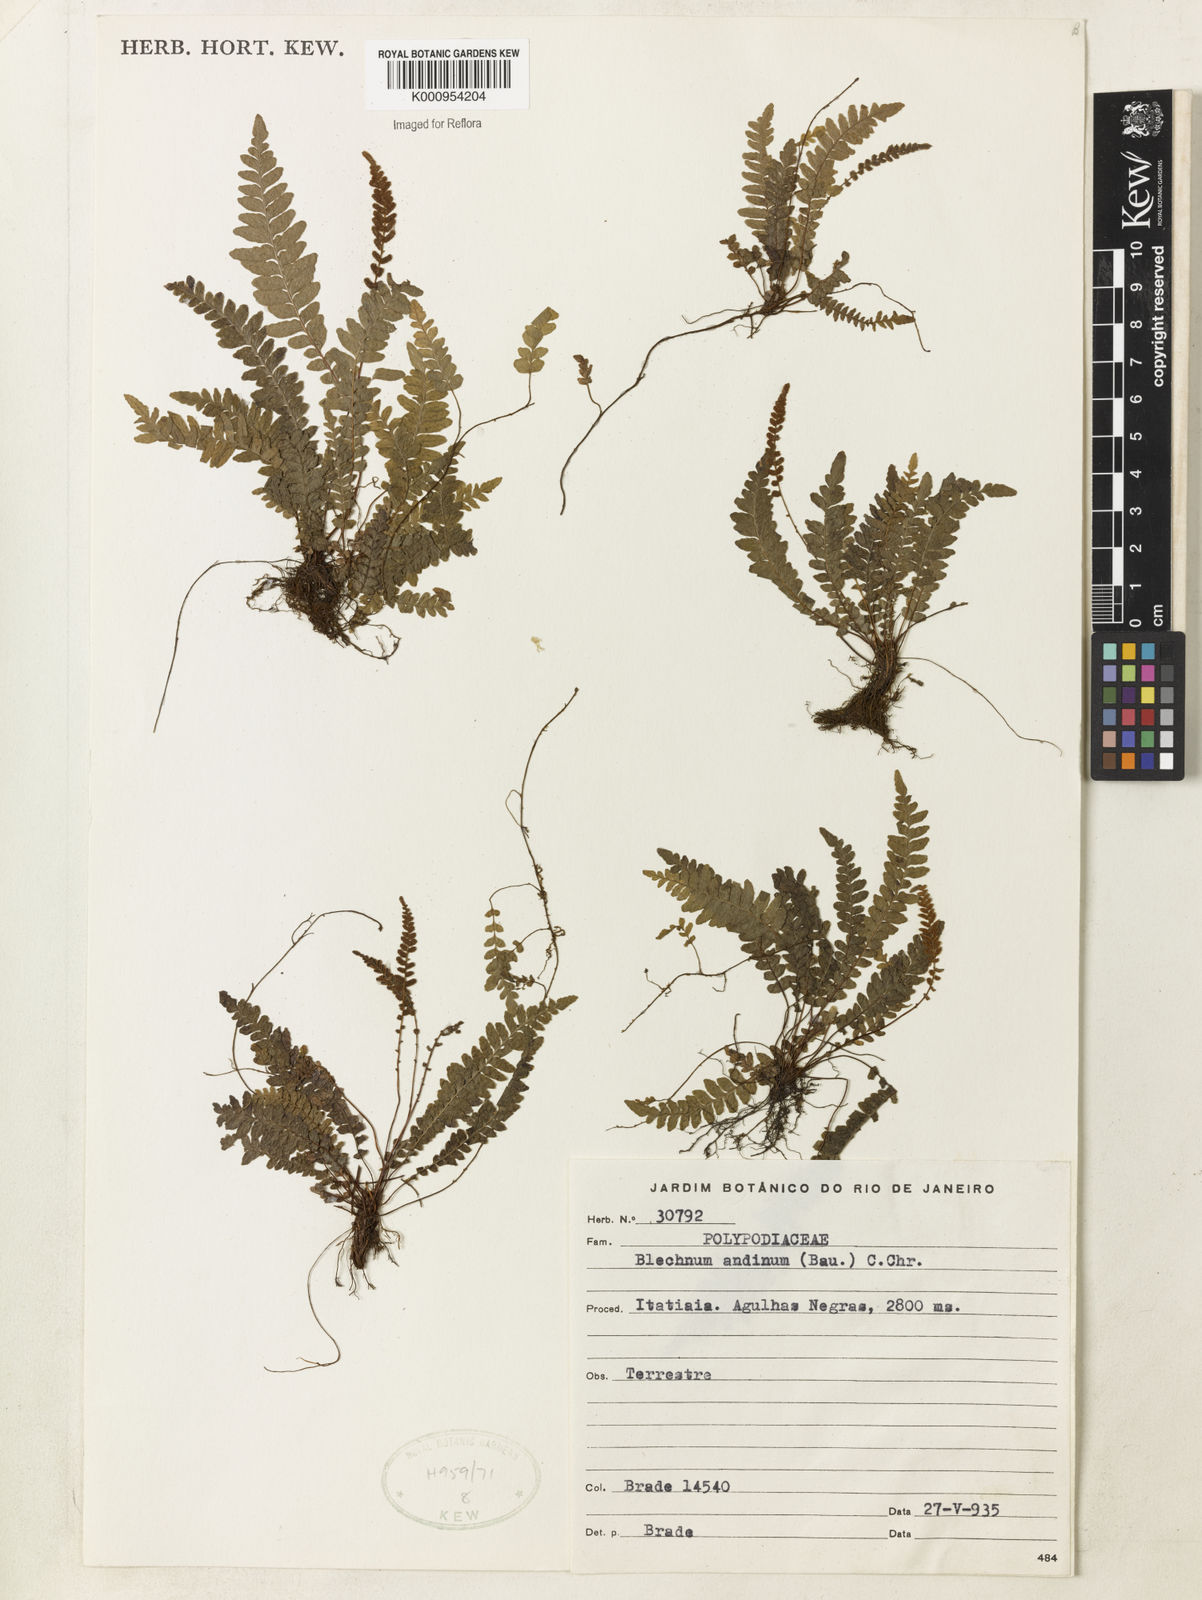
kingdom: Plantae
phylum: Tracheophyta
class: Polypodiopsida
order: Polypodiales
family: Blechnaceae
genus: Austroblechnum
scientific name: Austroblechnum andinum
